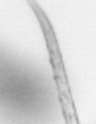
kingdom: Animalia
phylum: Arthropoda
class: Copepoda
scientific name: Copepoda
